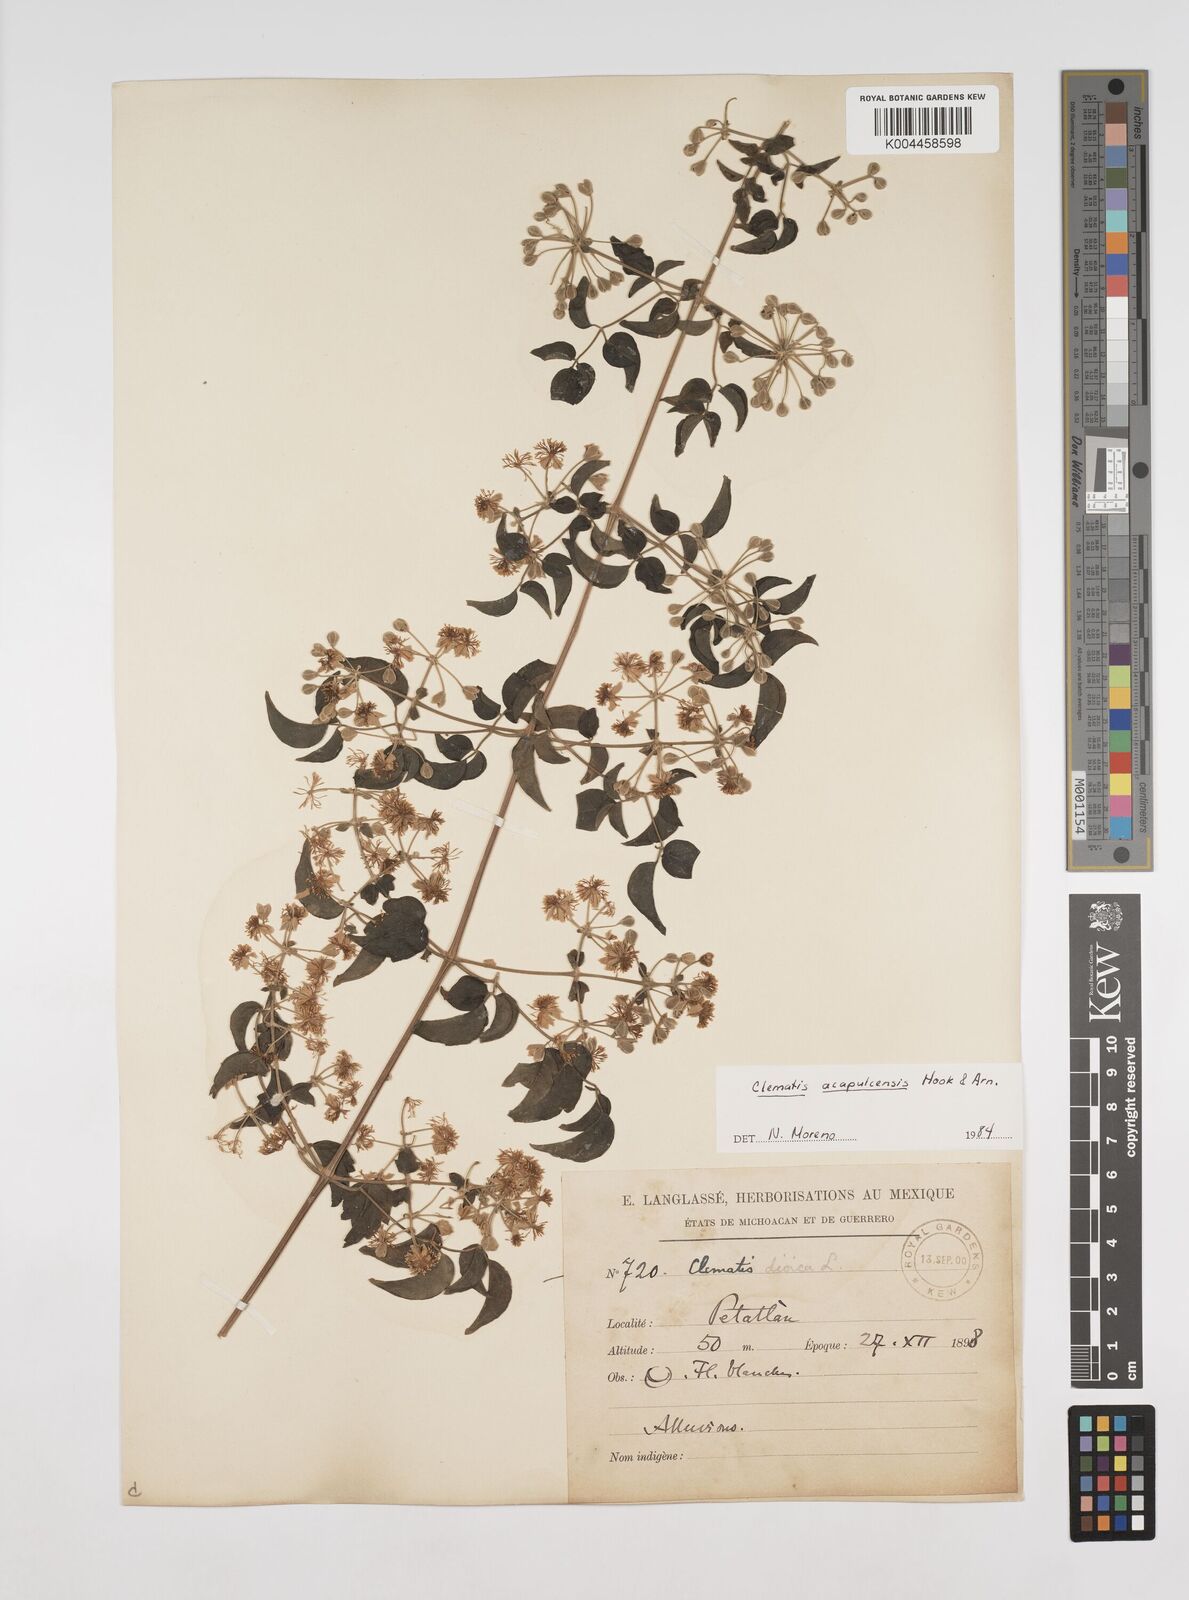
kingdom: Plantae
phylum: Tracheophyta
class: Magnoliopsida
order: Ranunculales
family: Ranunculaceae
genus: Clematis
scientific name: Clematis acapulcensis
